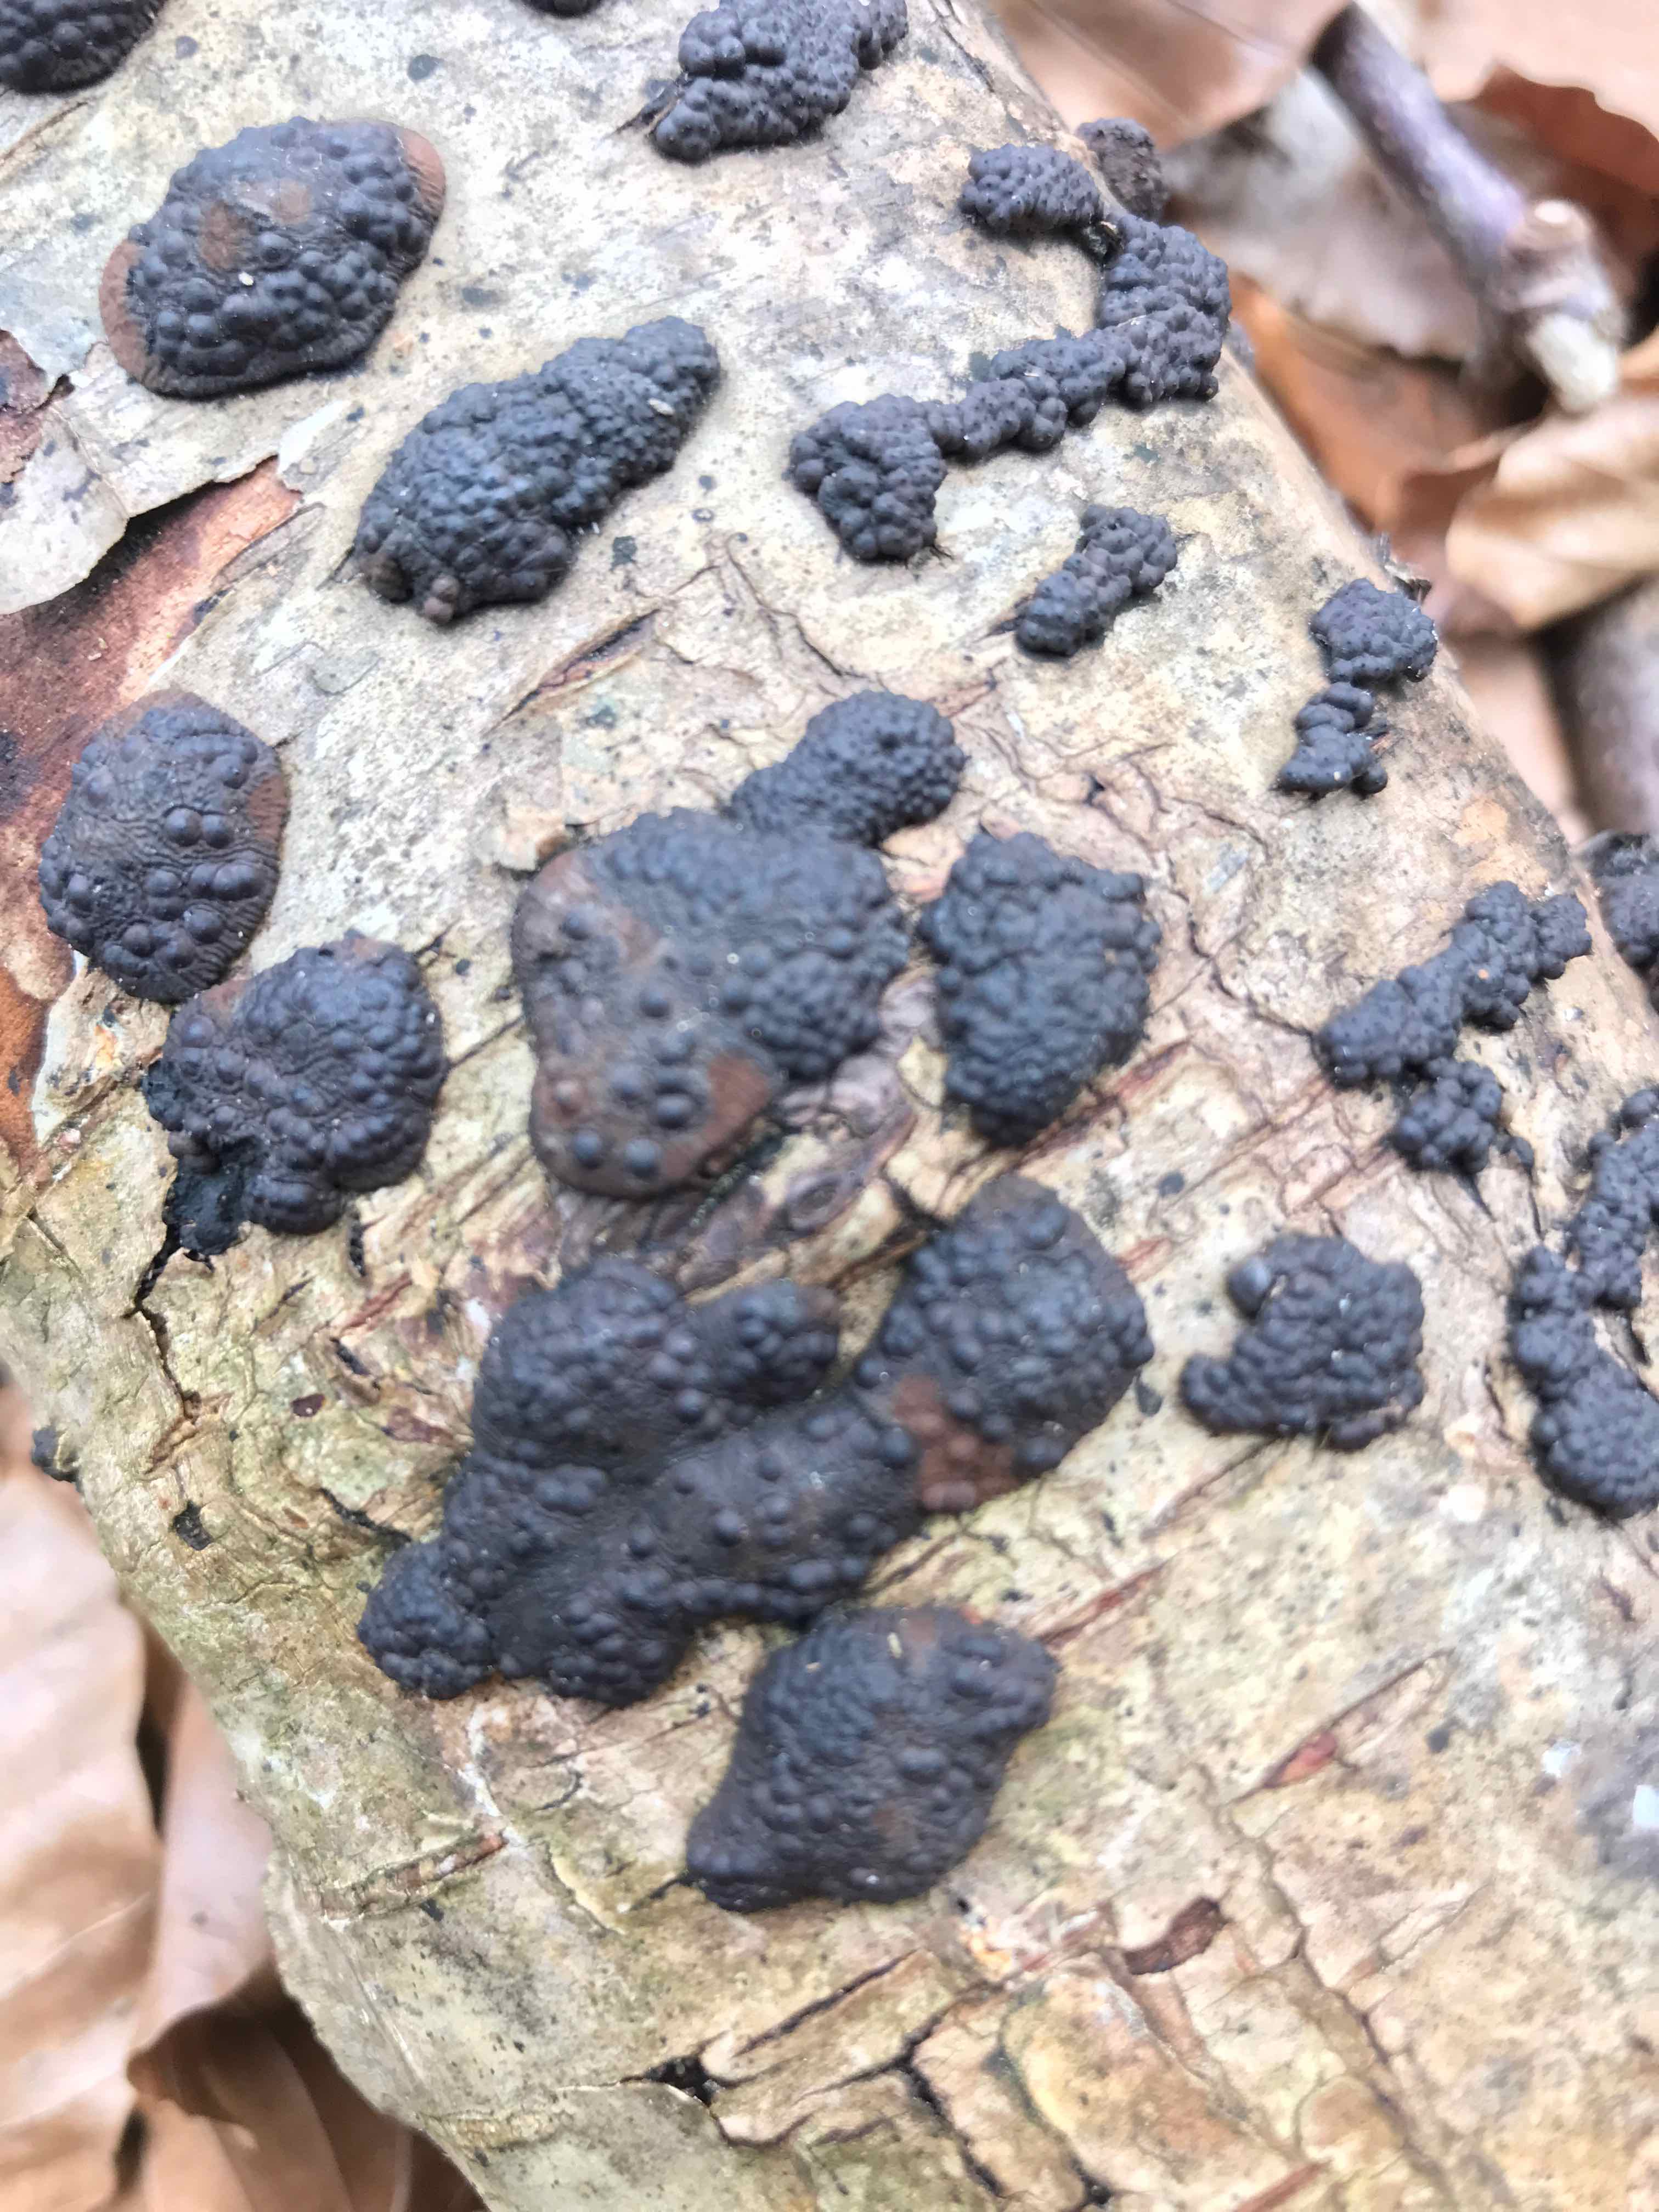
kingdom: Fungi
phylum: Ascomycota
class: Sordariomycetes
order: Xylariales
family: Hypoxylaceae
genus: Jackrogersella
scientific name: Jackrogersella multiformis
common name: foranderlig kulbær
